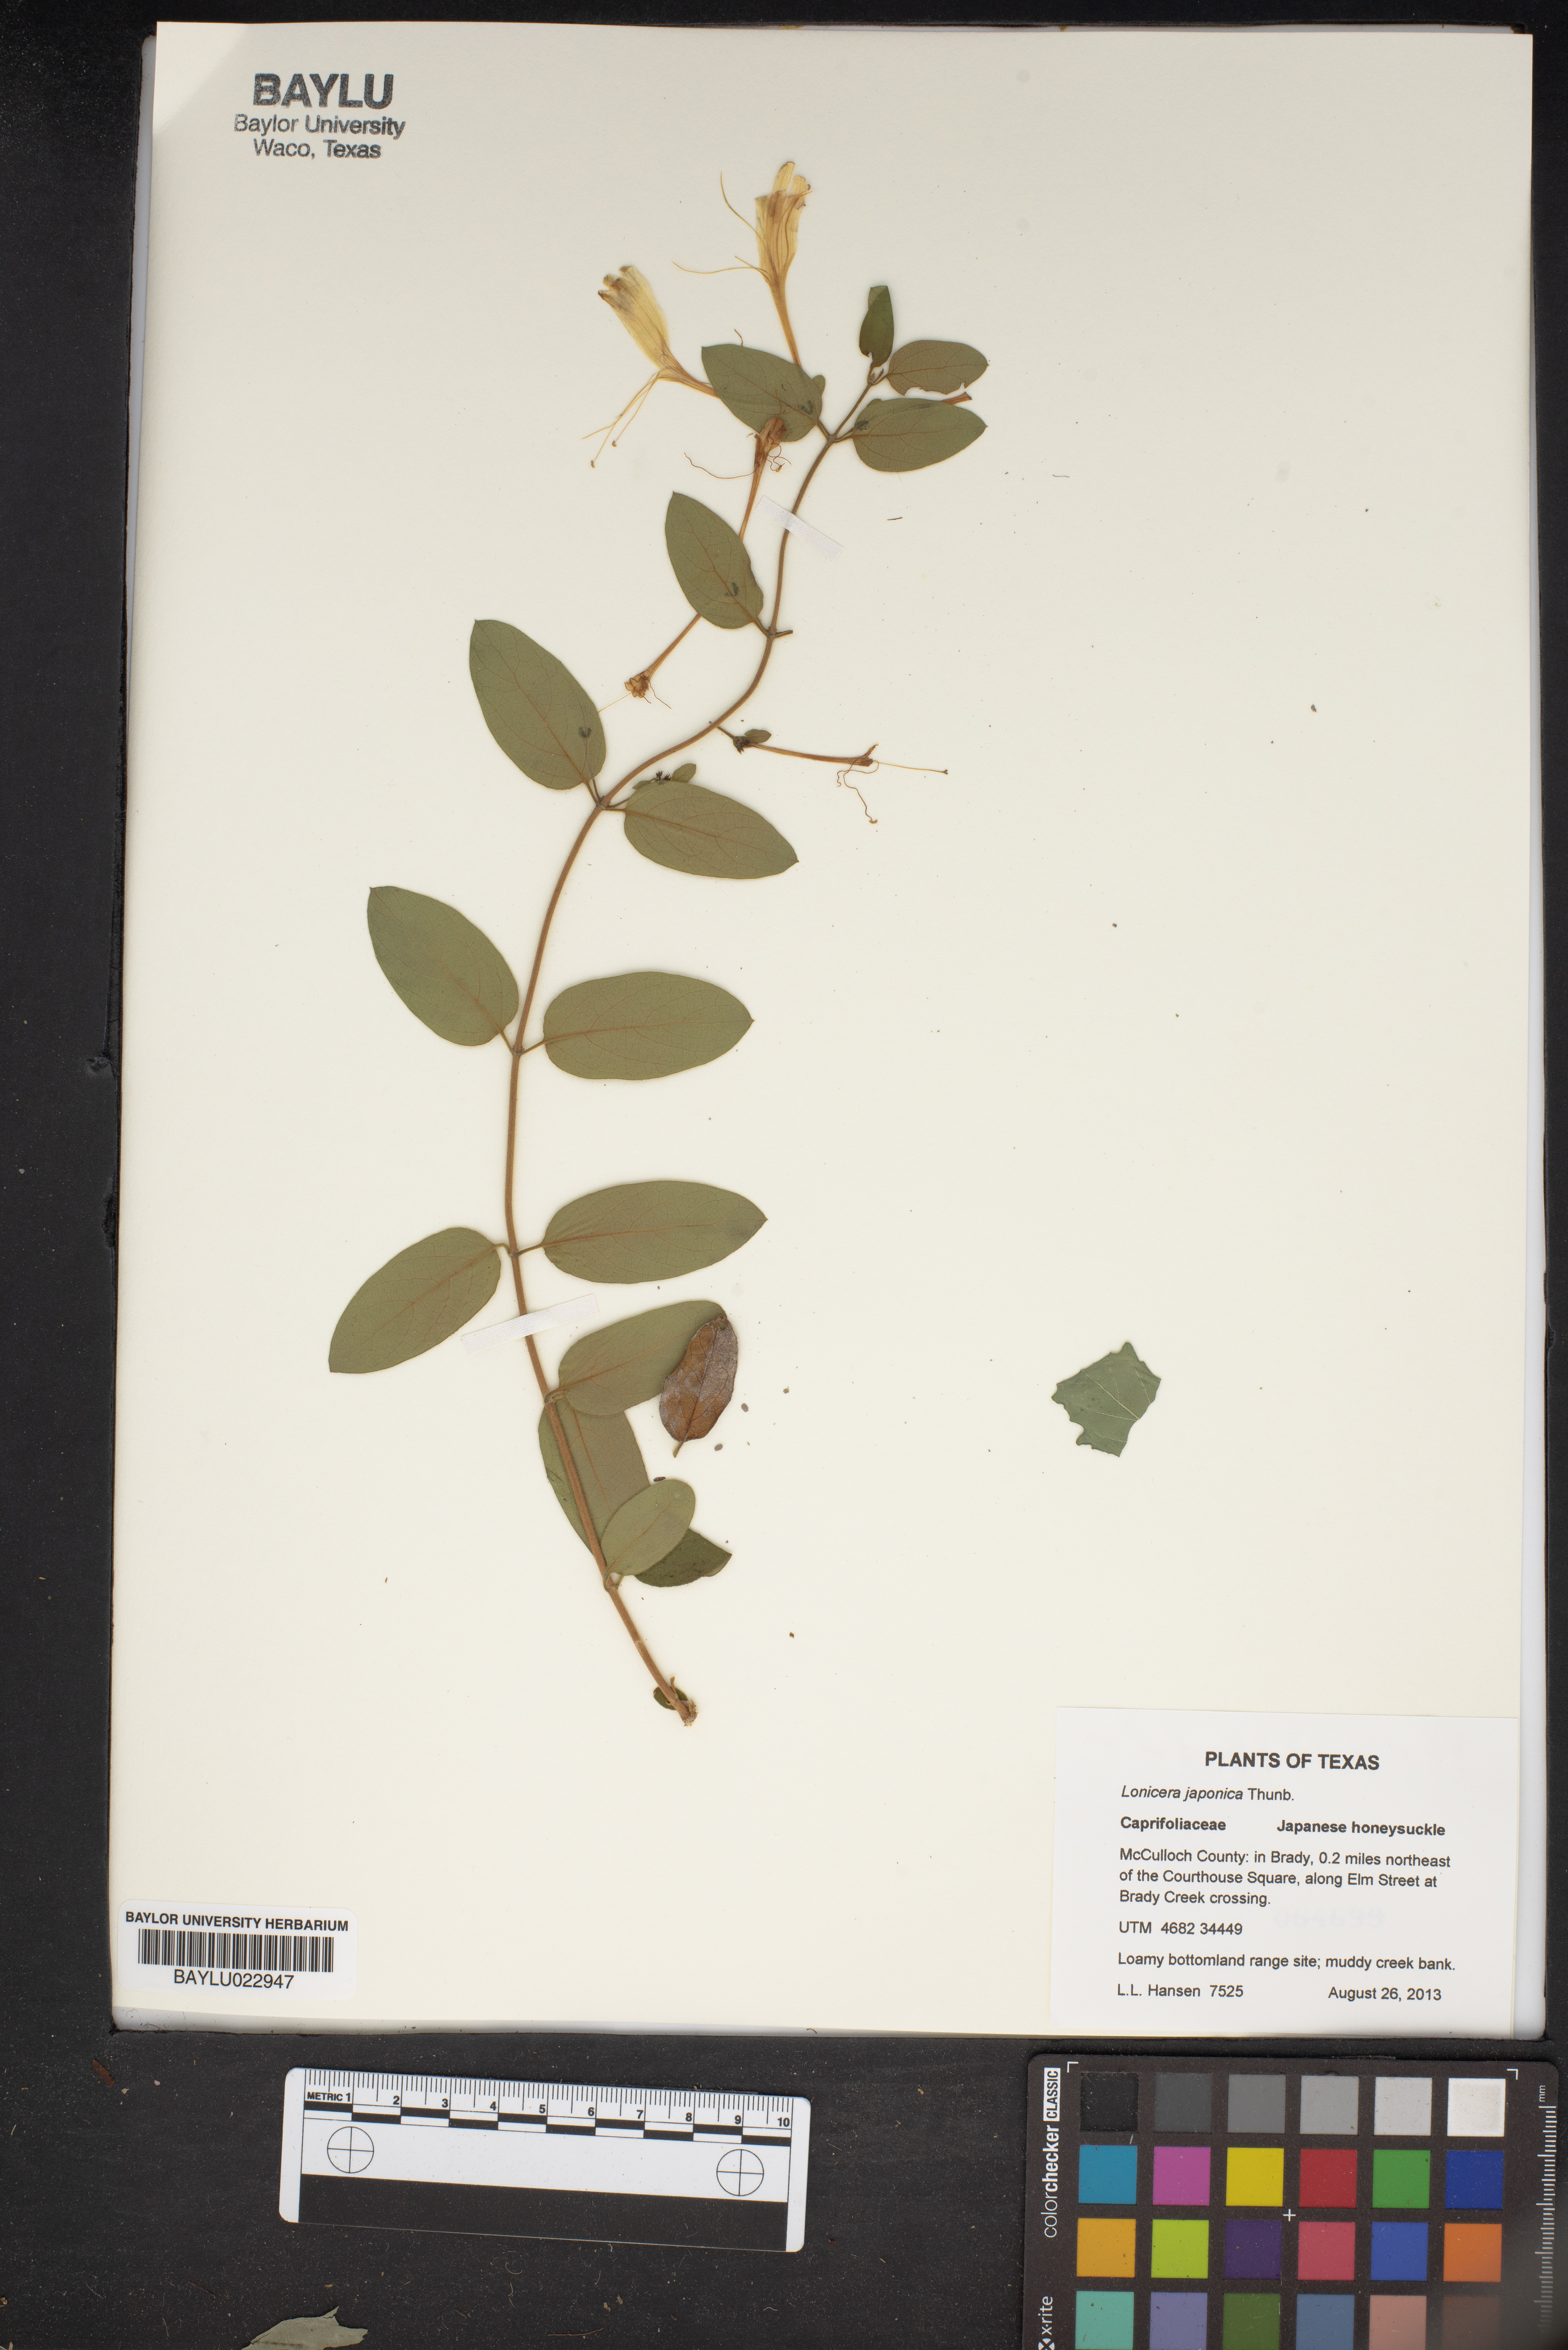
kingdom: Plantae
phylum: Tracheophyta
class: Magnoliopsida
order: Dipsacales
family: Caprifoliaceae
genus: Lonicera
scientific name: Lonicera japonica
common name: Japanese honeysuckle
